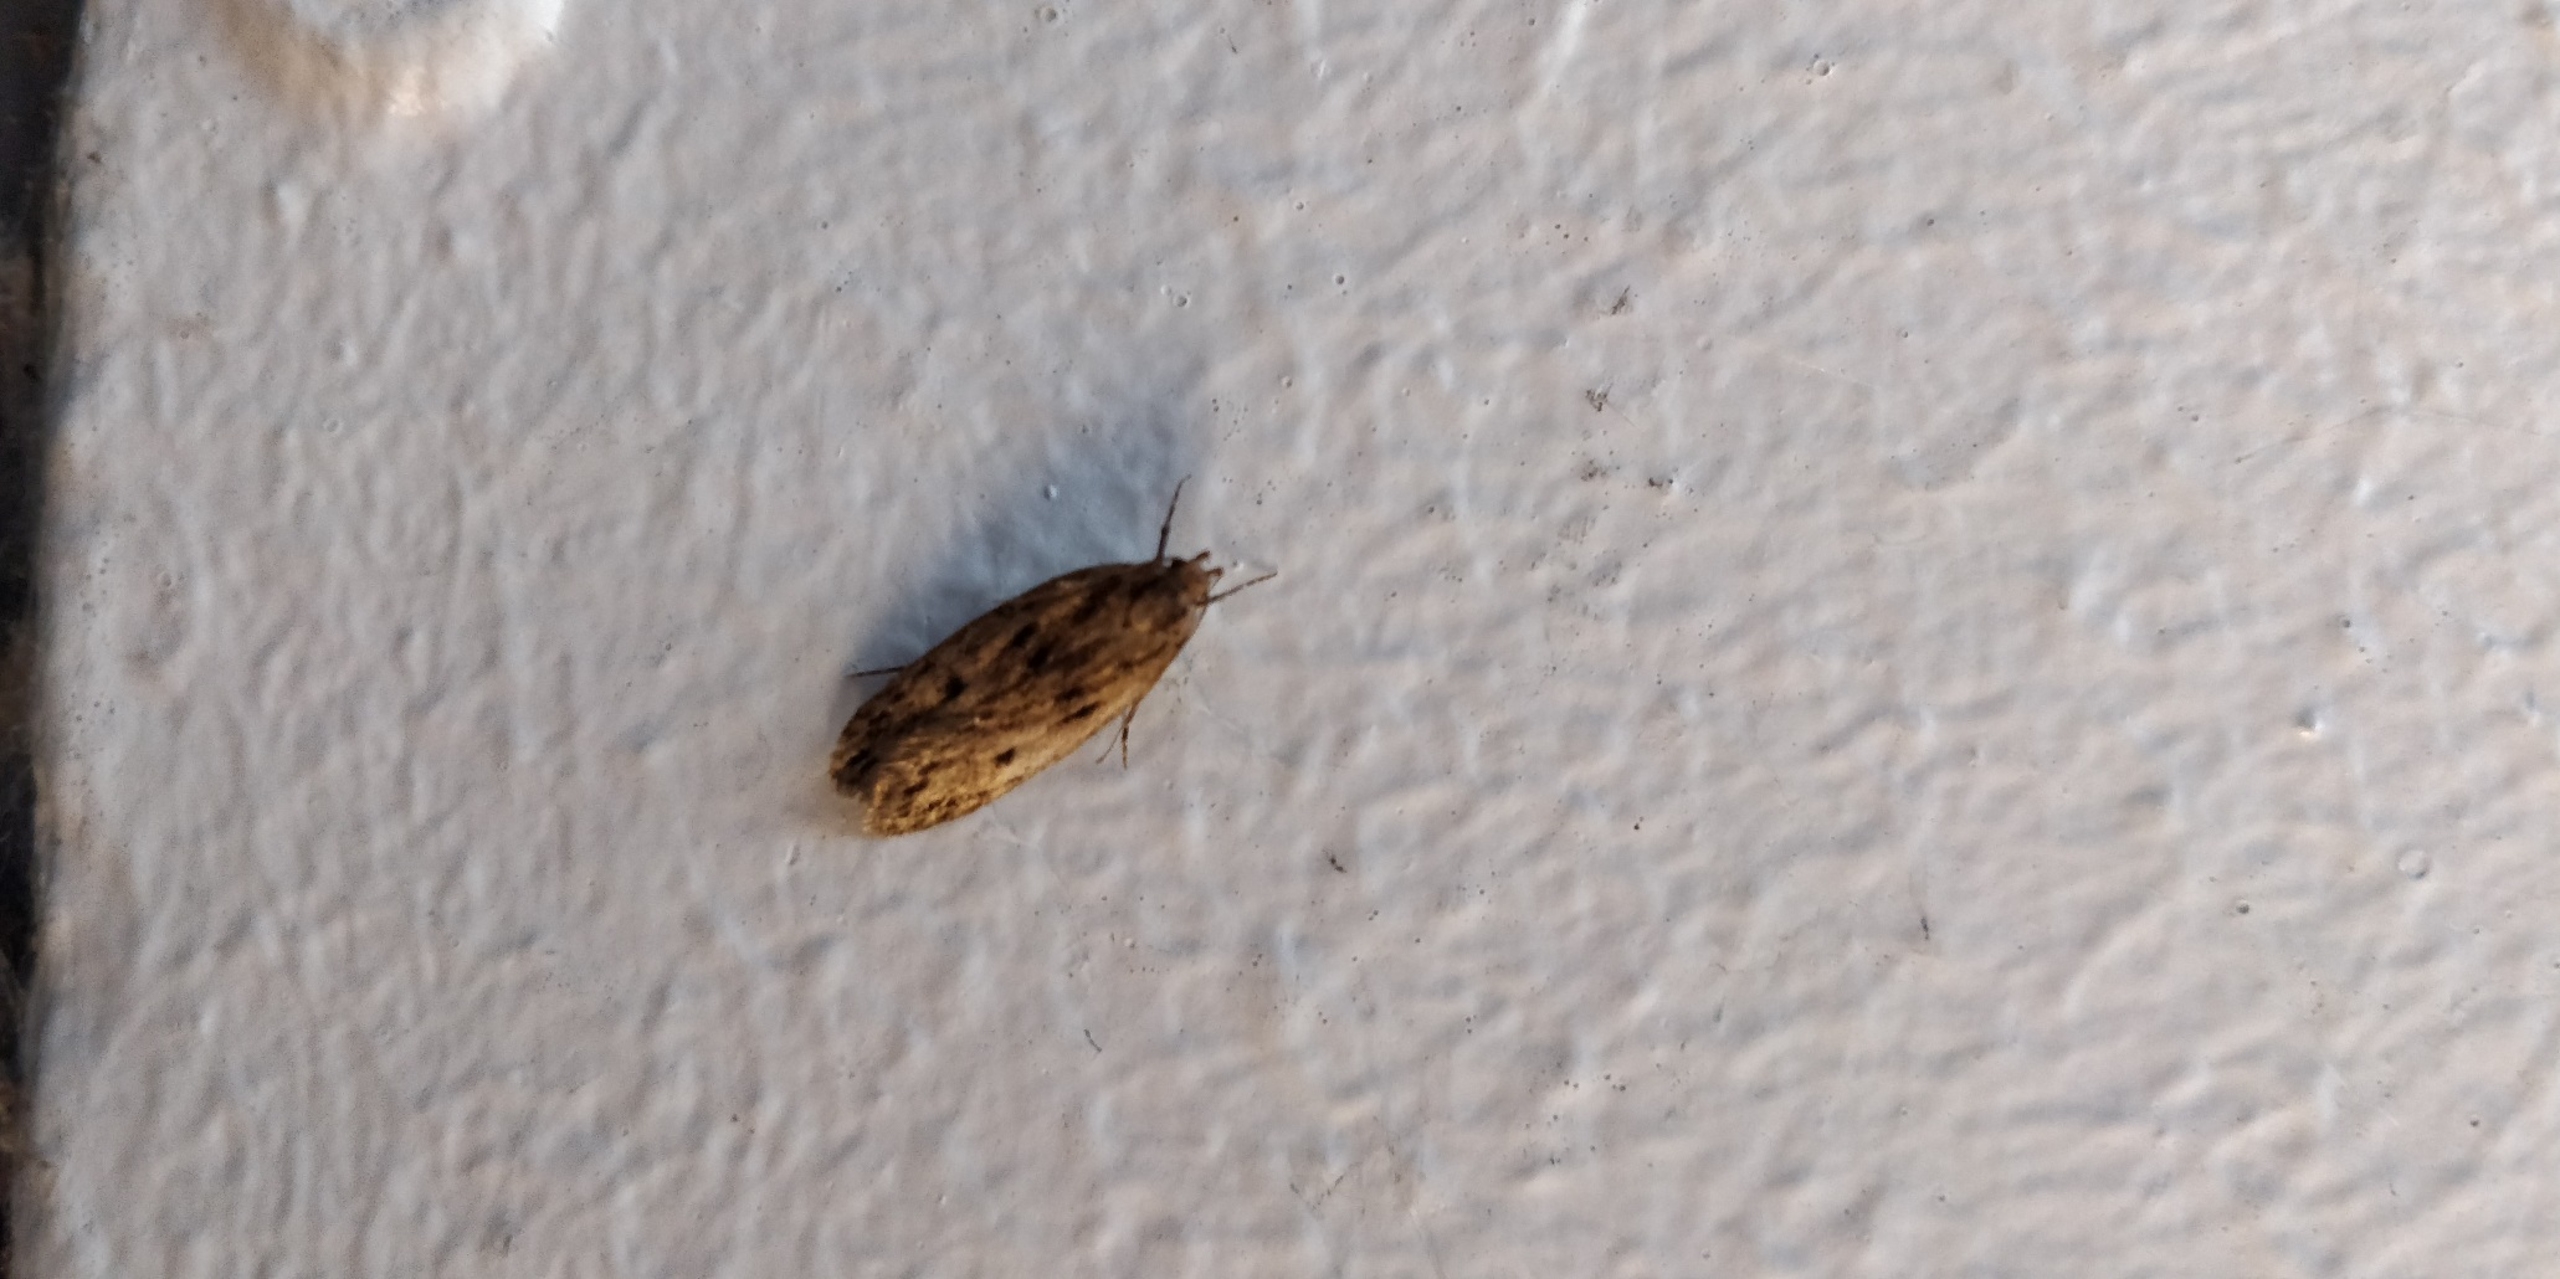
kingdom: Animalia
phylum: Arthropoda
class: Insecta
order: Lepidoptera
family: Oecophoridae
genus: Hofmannophila
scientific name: Hofmannophila pseudospretella
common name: Frømøl
